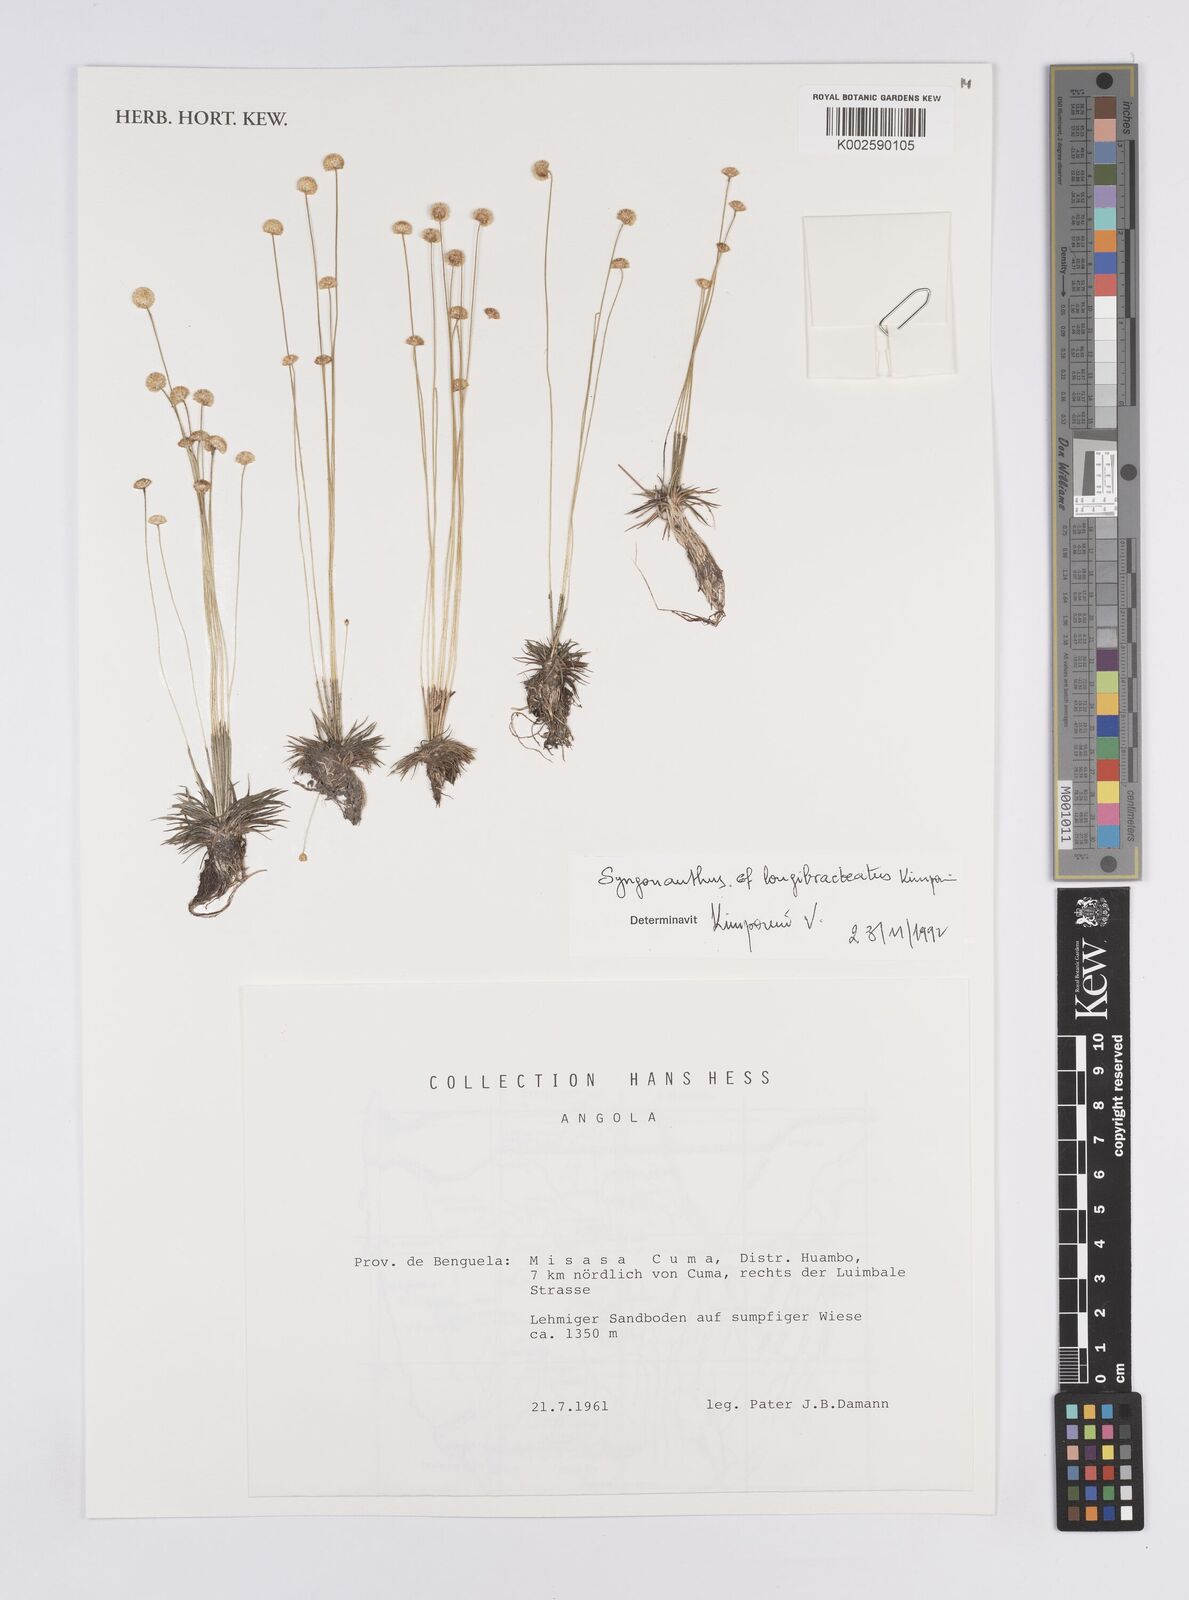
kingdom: Plantae
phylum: Tracheophyta
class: Liliopsida
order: Poales
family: Eriocaulaceae
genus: Syngonanthus
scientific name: Syngonanthus longibracteatus
